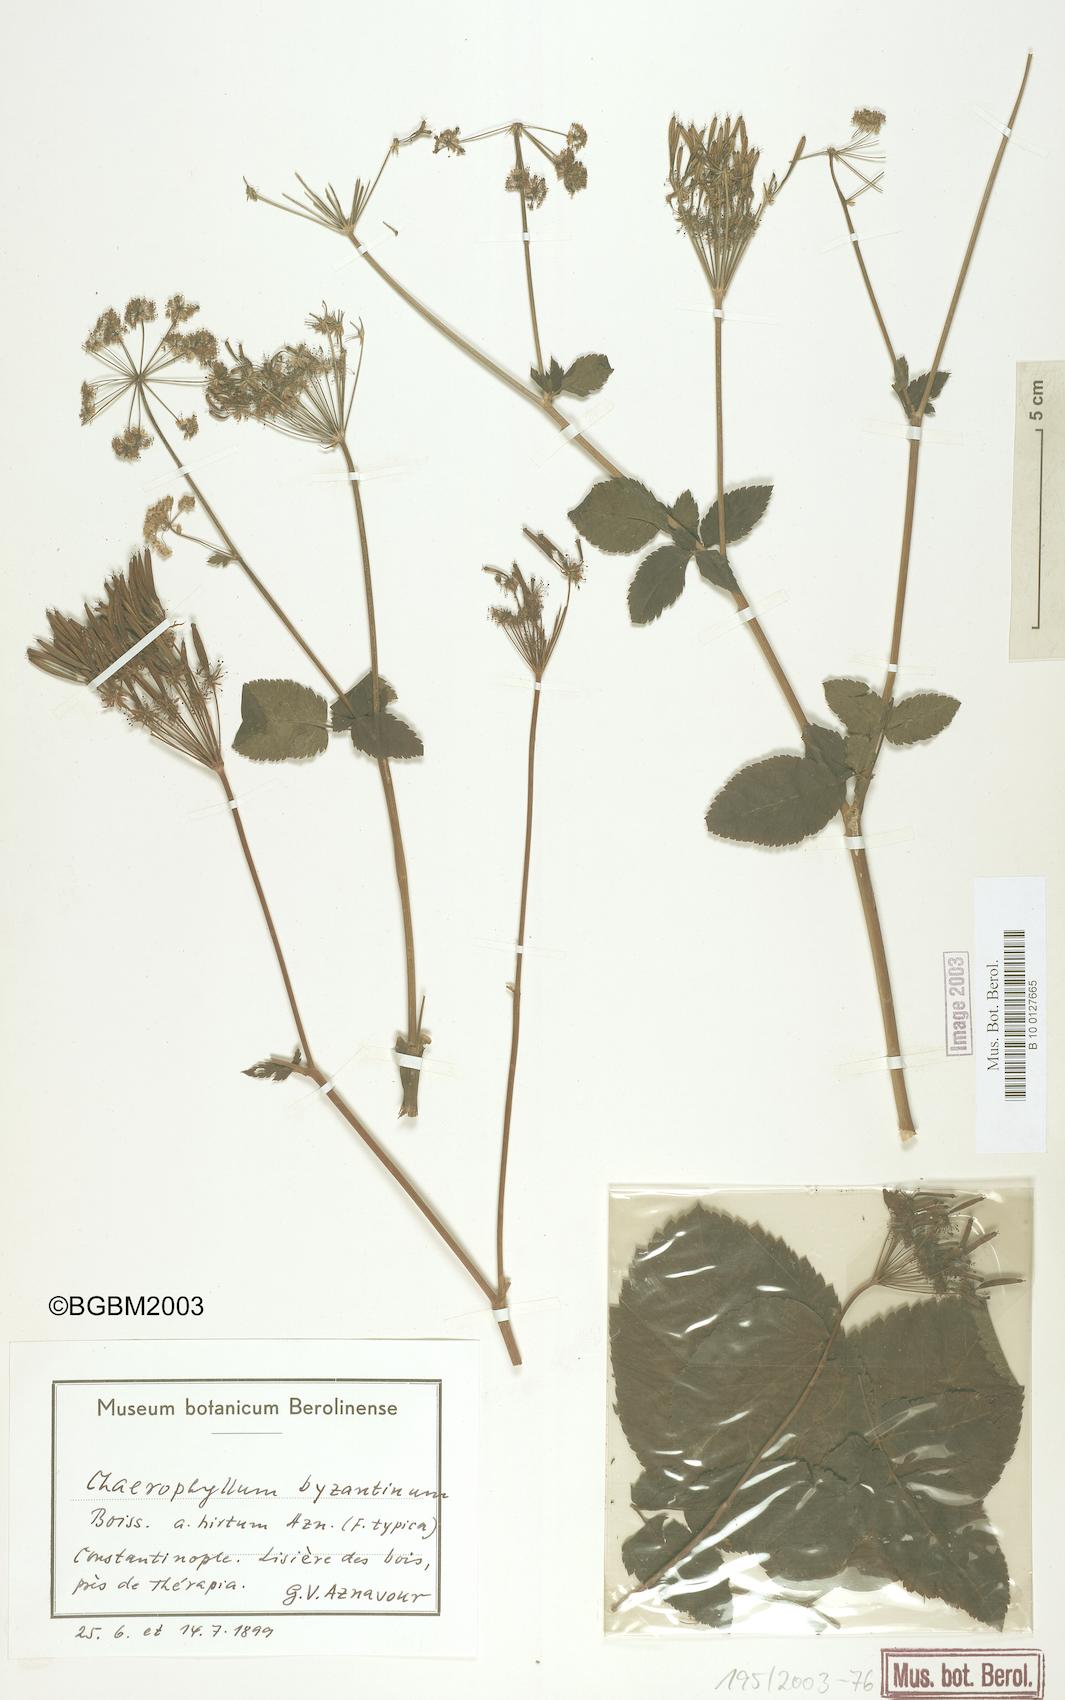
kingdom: Plantae
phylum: Tracheophyta
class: Magnoliopsida
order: Apiales
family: Apiaceae
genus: Chaerophyllum
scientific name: Chaerophyllum byzantinum
